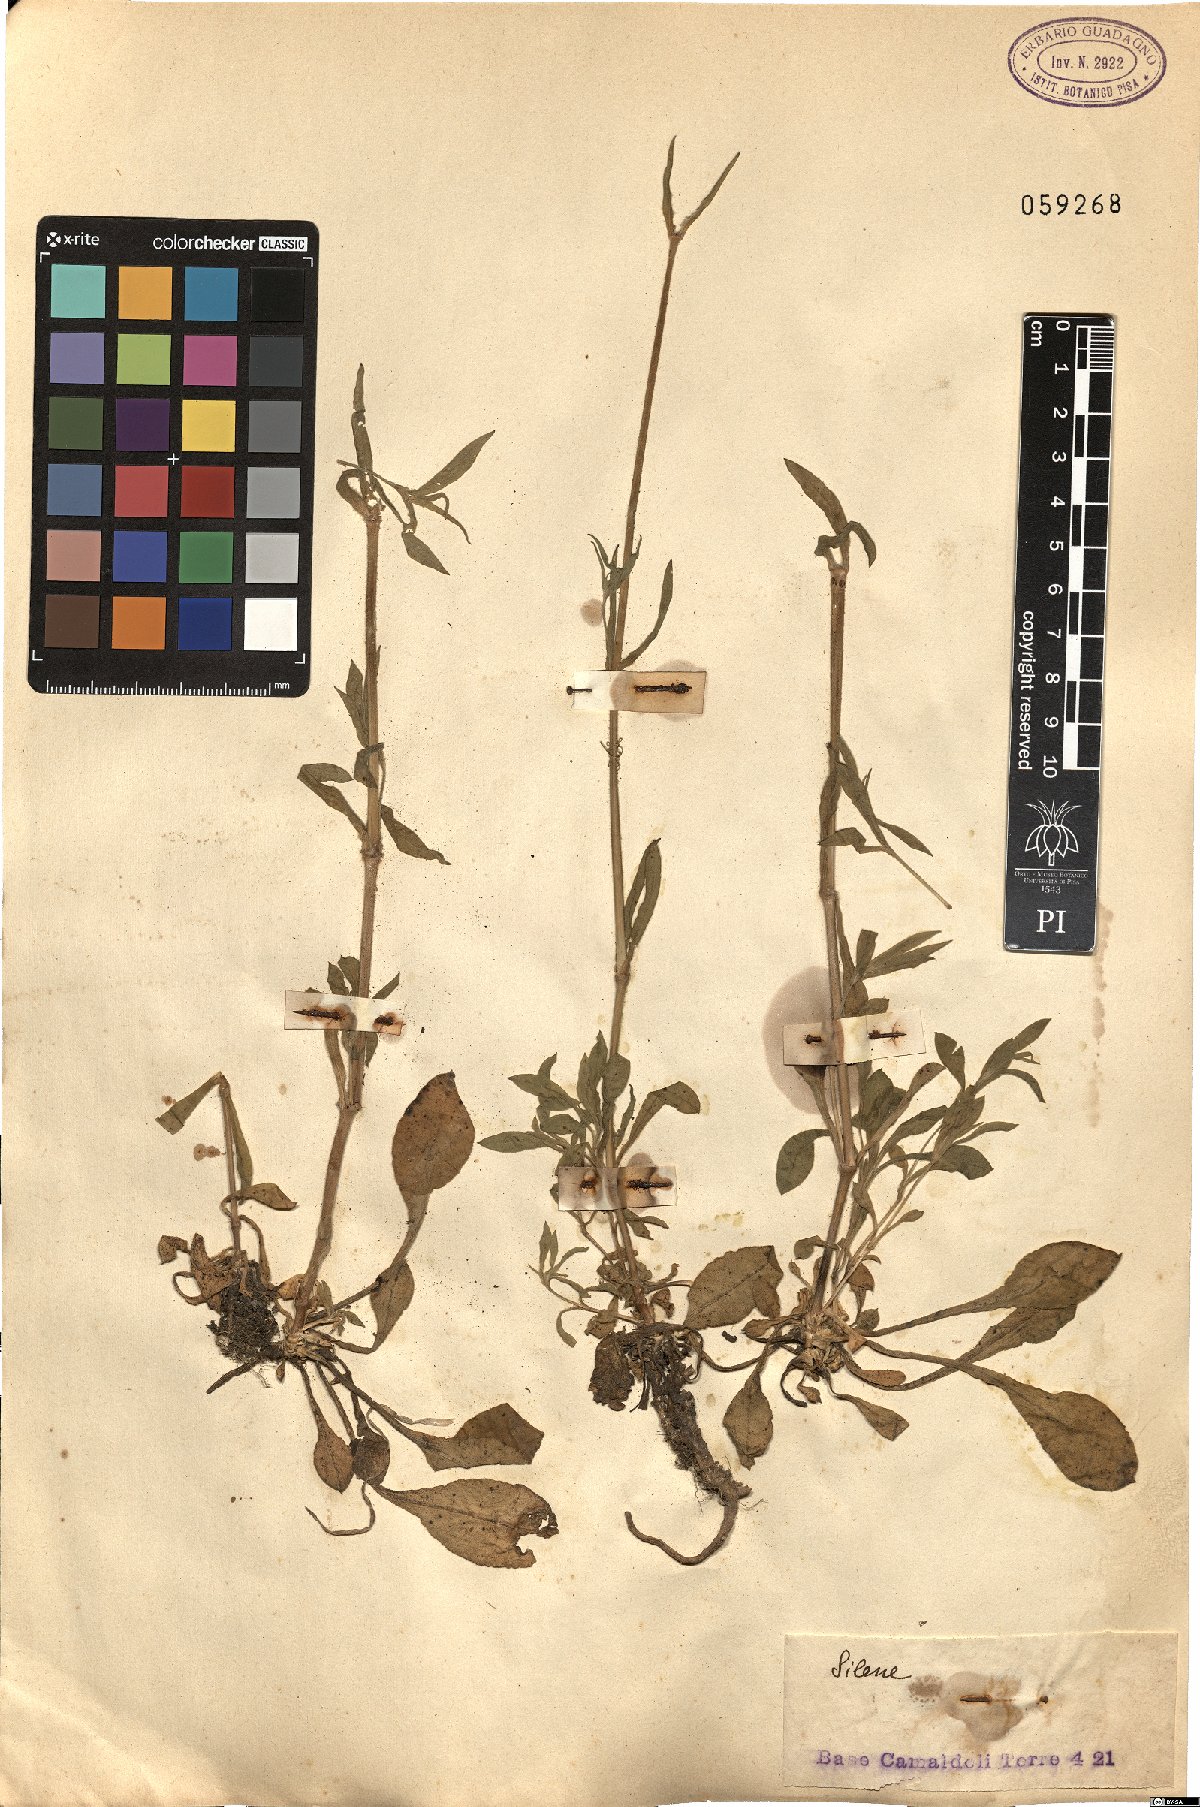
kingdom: Plantae
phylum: Tracheophyta
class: Magnoliopsida
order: Caryophyllales
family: Caryophyllaceae
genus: Silene
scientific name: Silene
